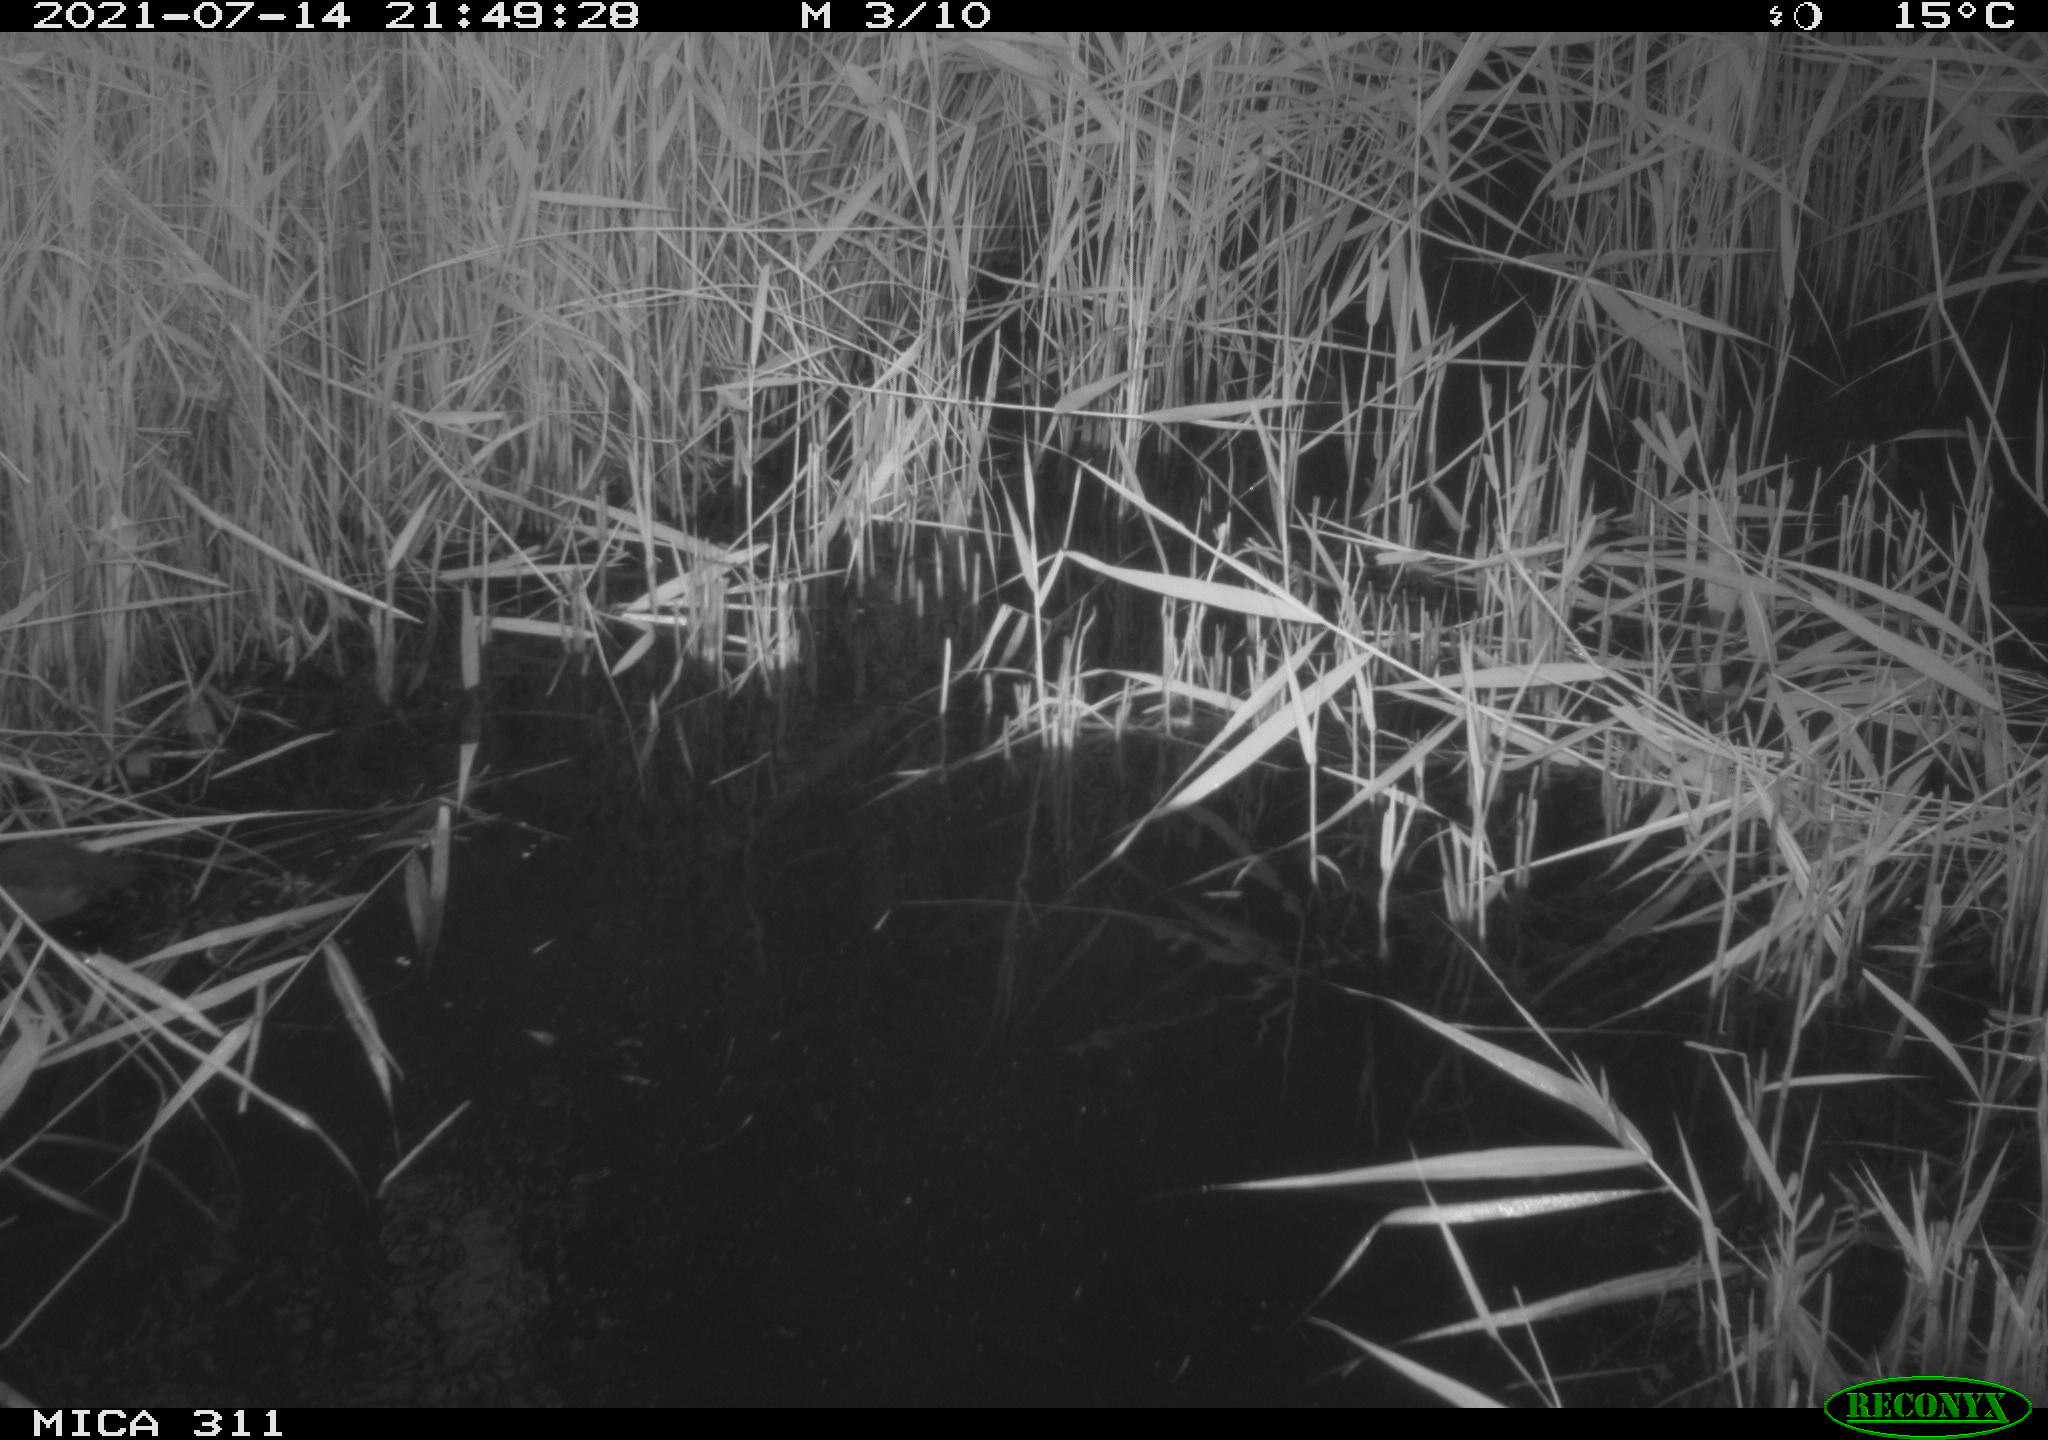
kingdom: Animalia
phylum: Chordata
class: Aves
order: Gruiformes
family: Rallidae
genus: Gallinula
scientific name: Gallinula chloropus
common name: Common moorhen
